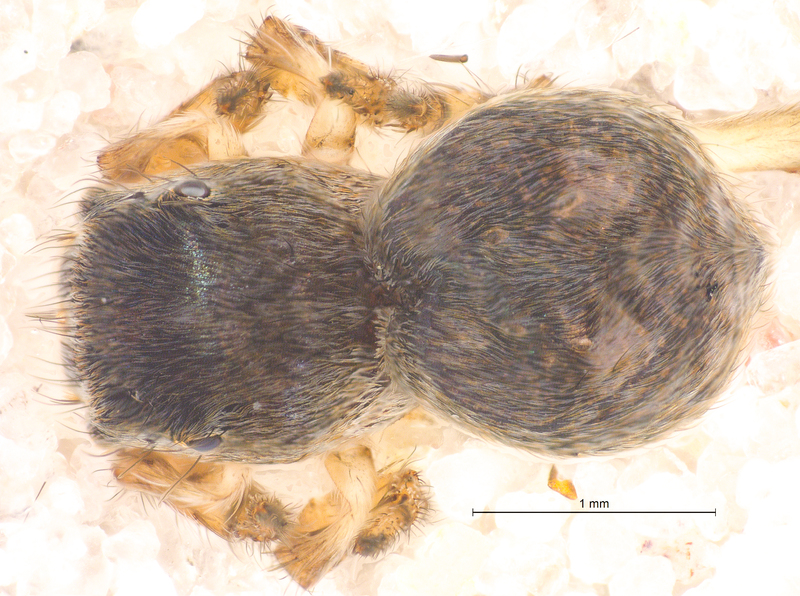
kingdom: Animalia
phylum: Arthropoda
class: Arachnida
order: Araneae
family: Salticidae
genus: Attulus
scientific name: Attulus saltator
